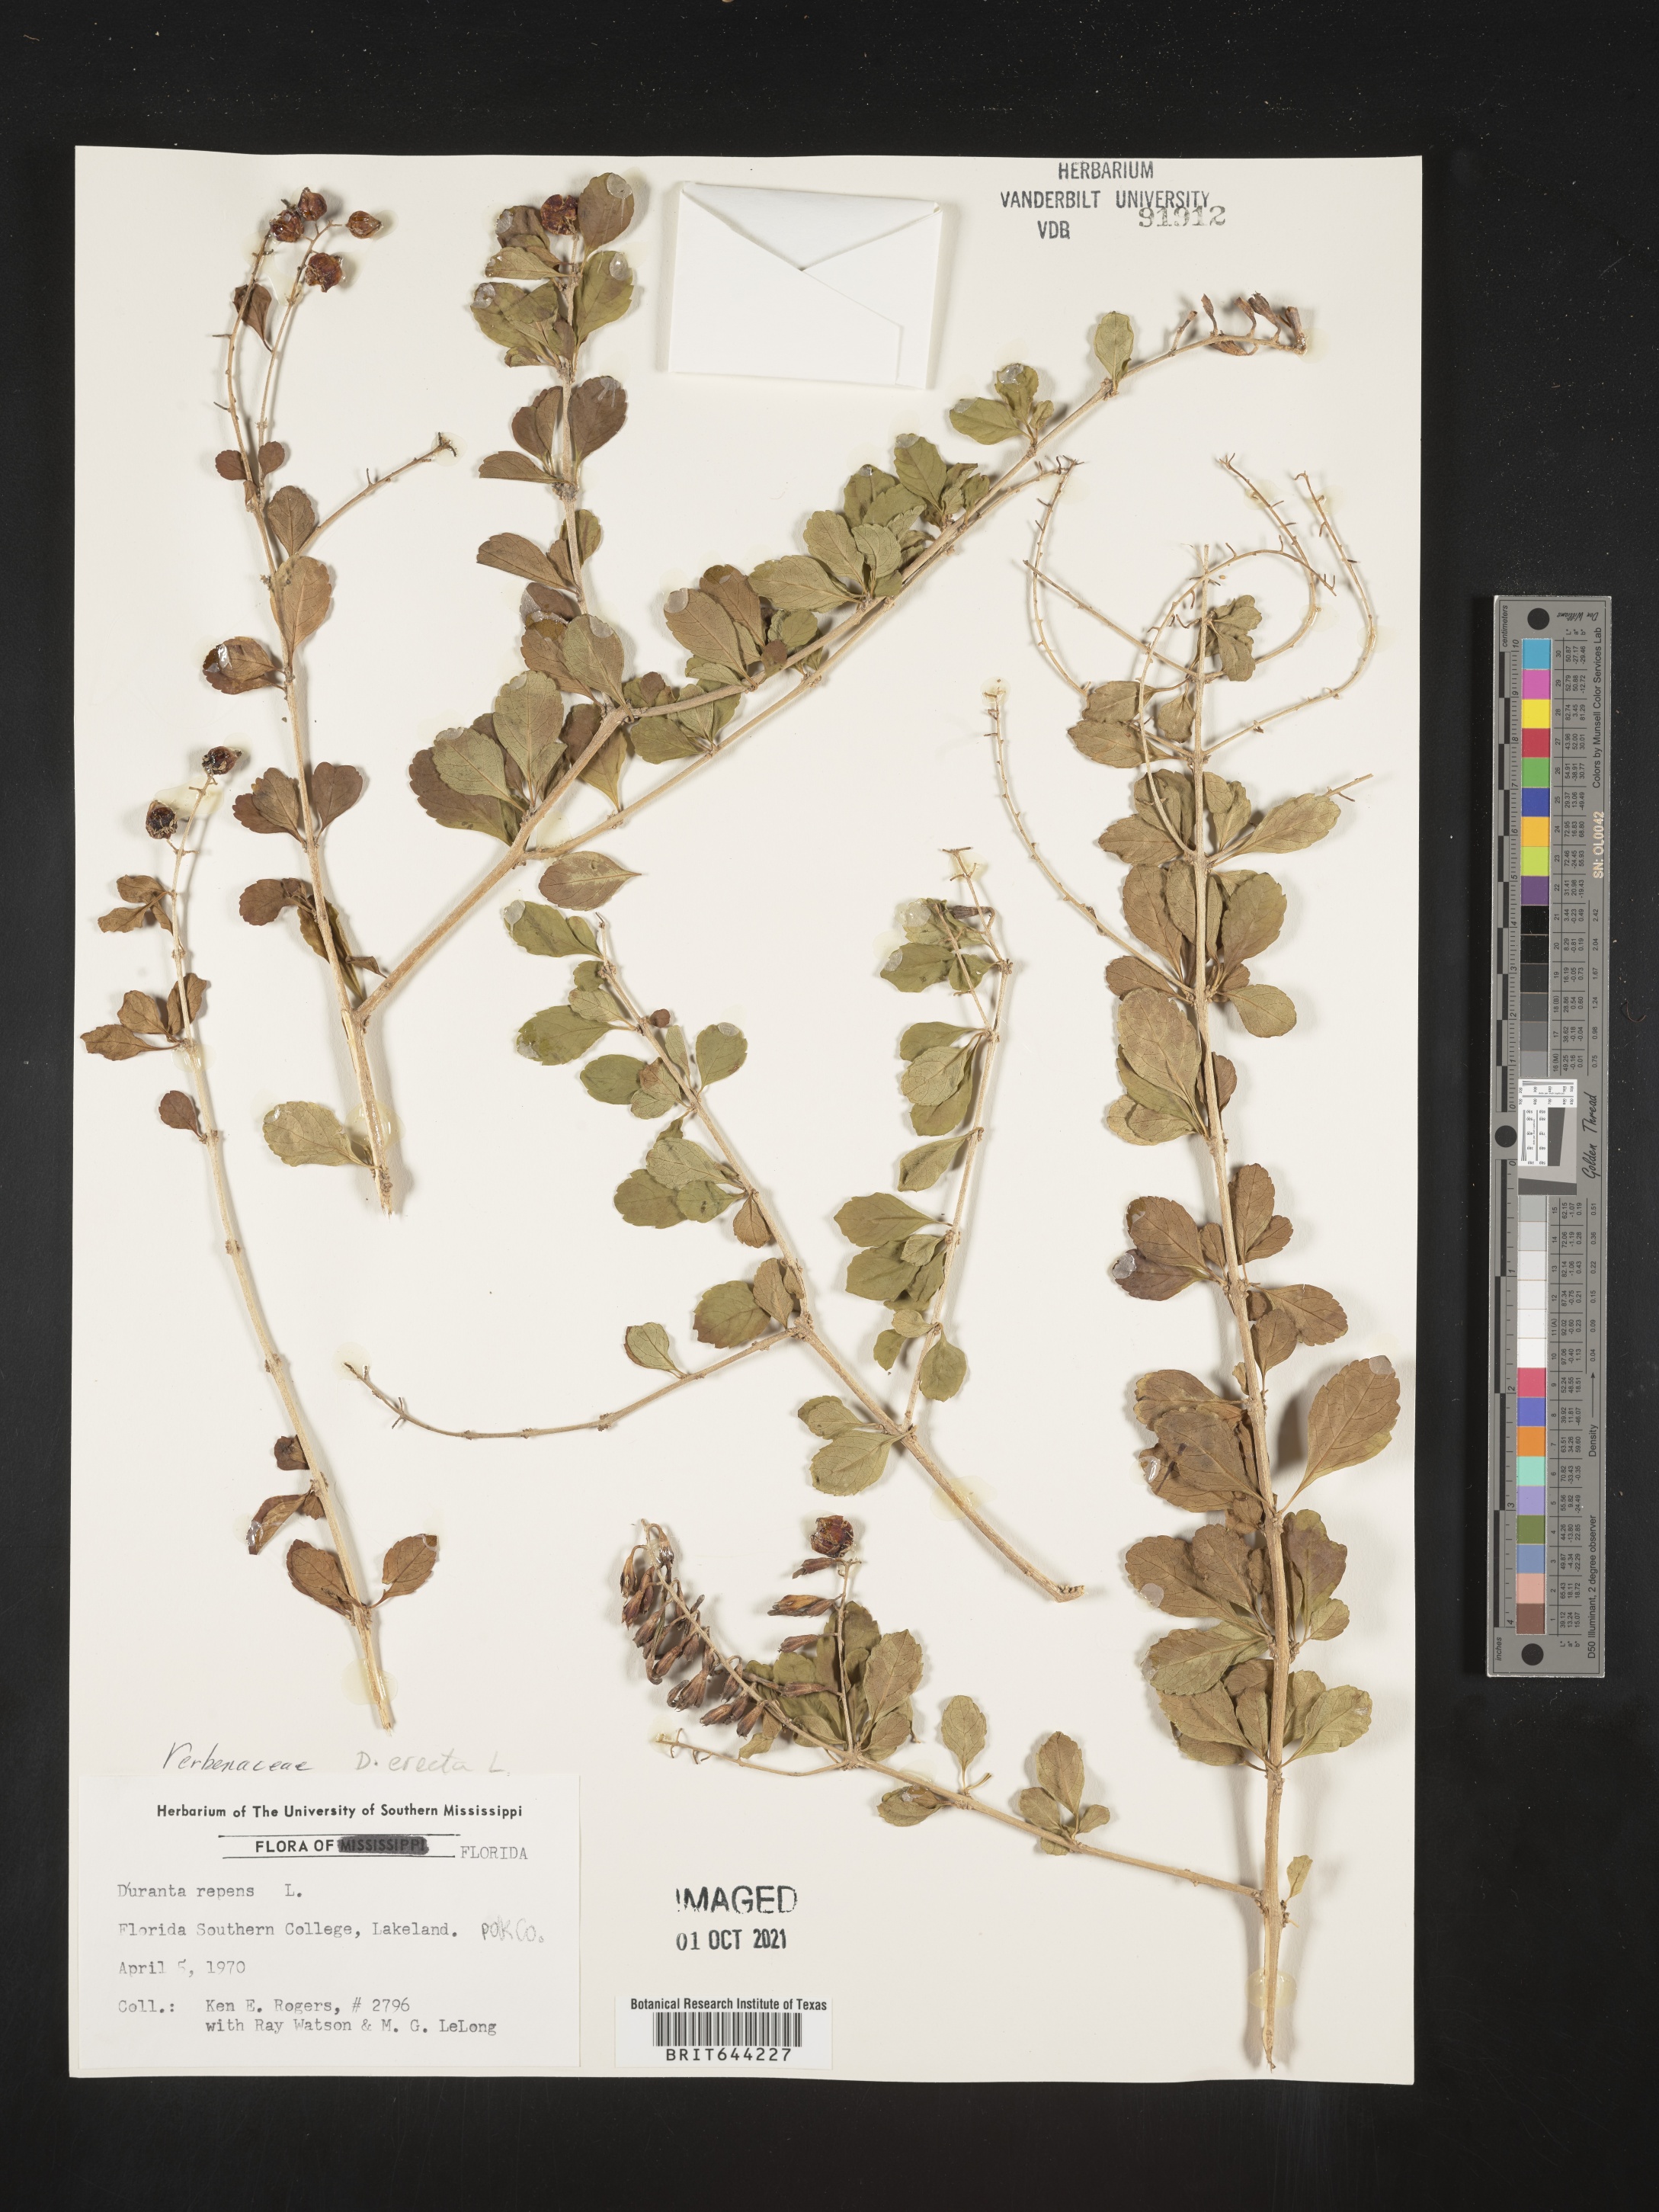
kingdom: Plantae
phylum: Tracheophyta
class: Magnoliopsida
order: Lamiales
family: Verbenaceae
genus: Duranta
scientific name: Duranta erecta
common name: Golden dewdrops
